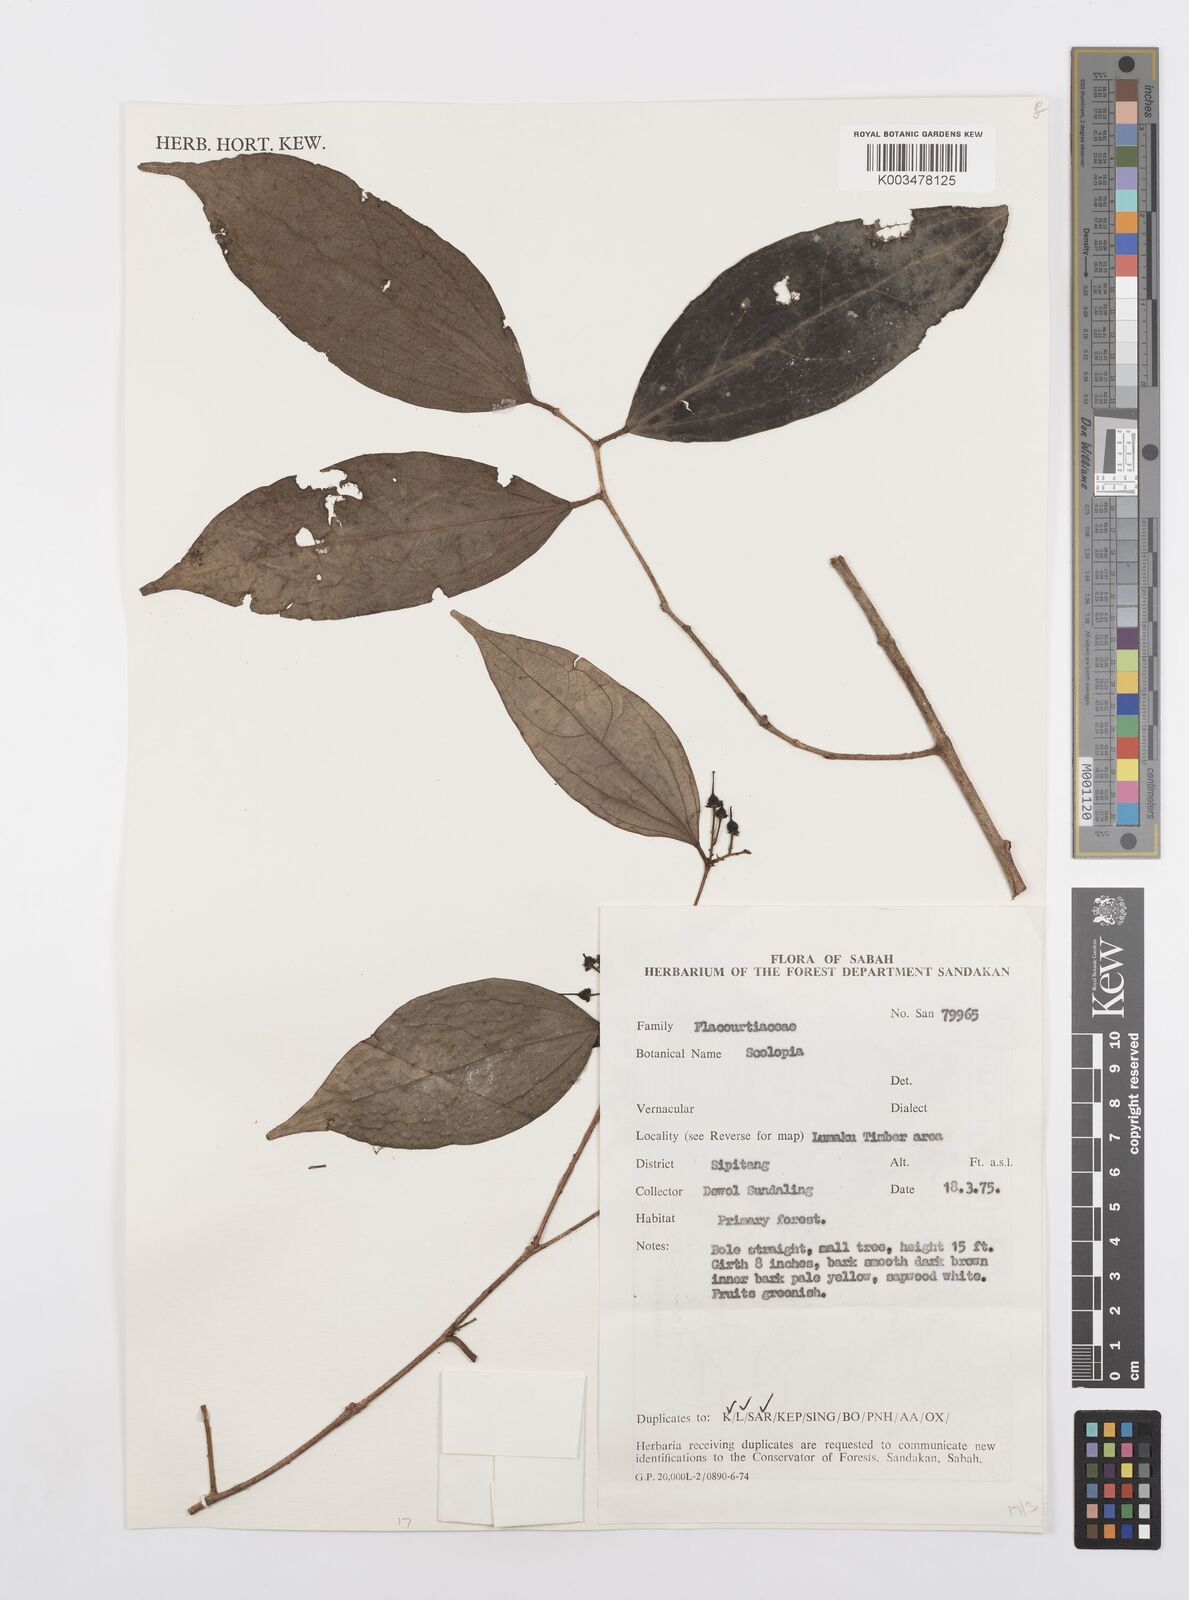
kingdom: Plantae
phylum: Tracheophyta
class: Magnoliopsida
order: Malpighiales
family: Salicaceae
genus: Scolopia
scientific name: Scolopia
